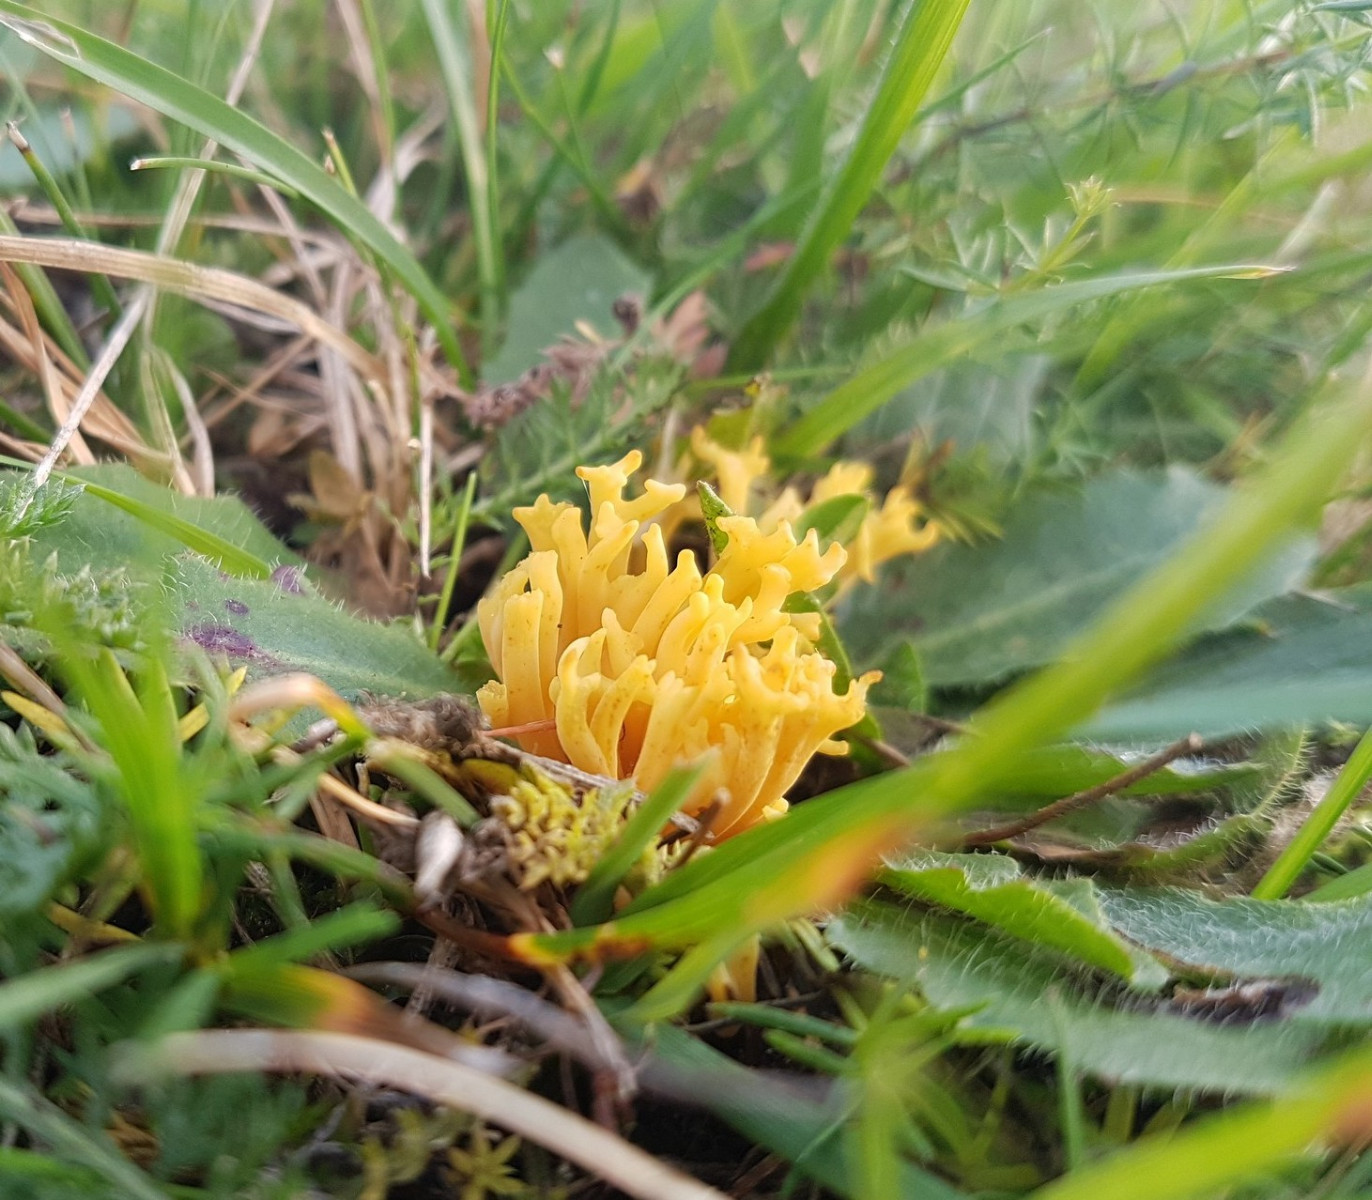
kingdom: Fungi
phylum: Basidiomycota
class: Agaricomycetes
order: Agaricales
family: Clavariaceae
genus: Clavulinopsis
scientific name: Clavulinopsis corniculata
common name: eng-køllesvamp
